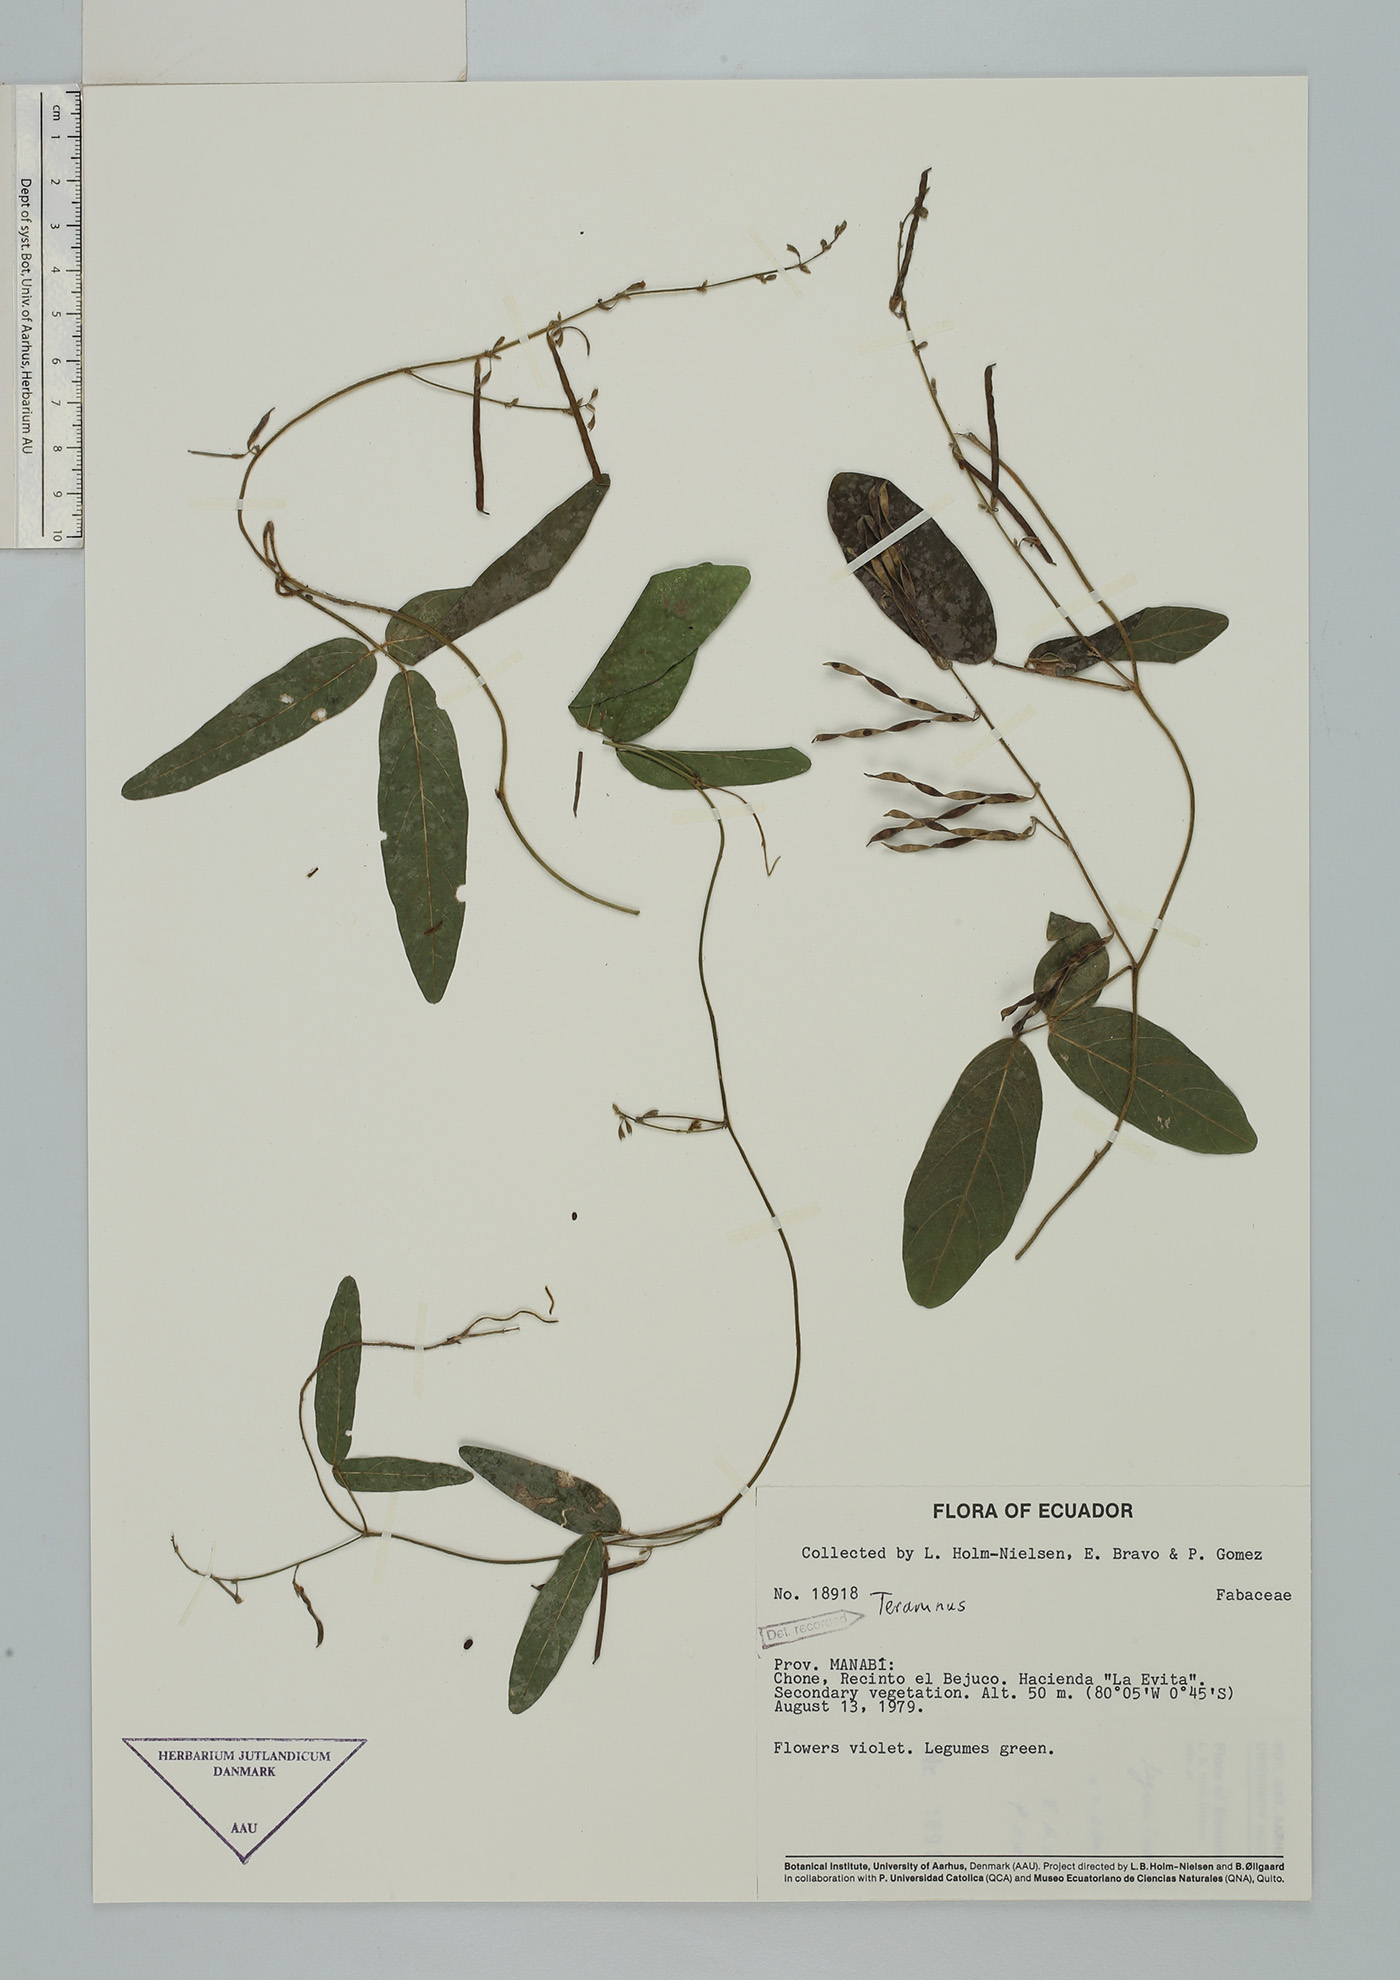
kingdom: Plantae
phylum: Tracheophyta
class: Magnoliopsida
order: Fabales
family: Fabaceae
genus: Teramnus
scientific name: Teramnus volubilis
